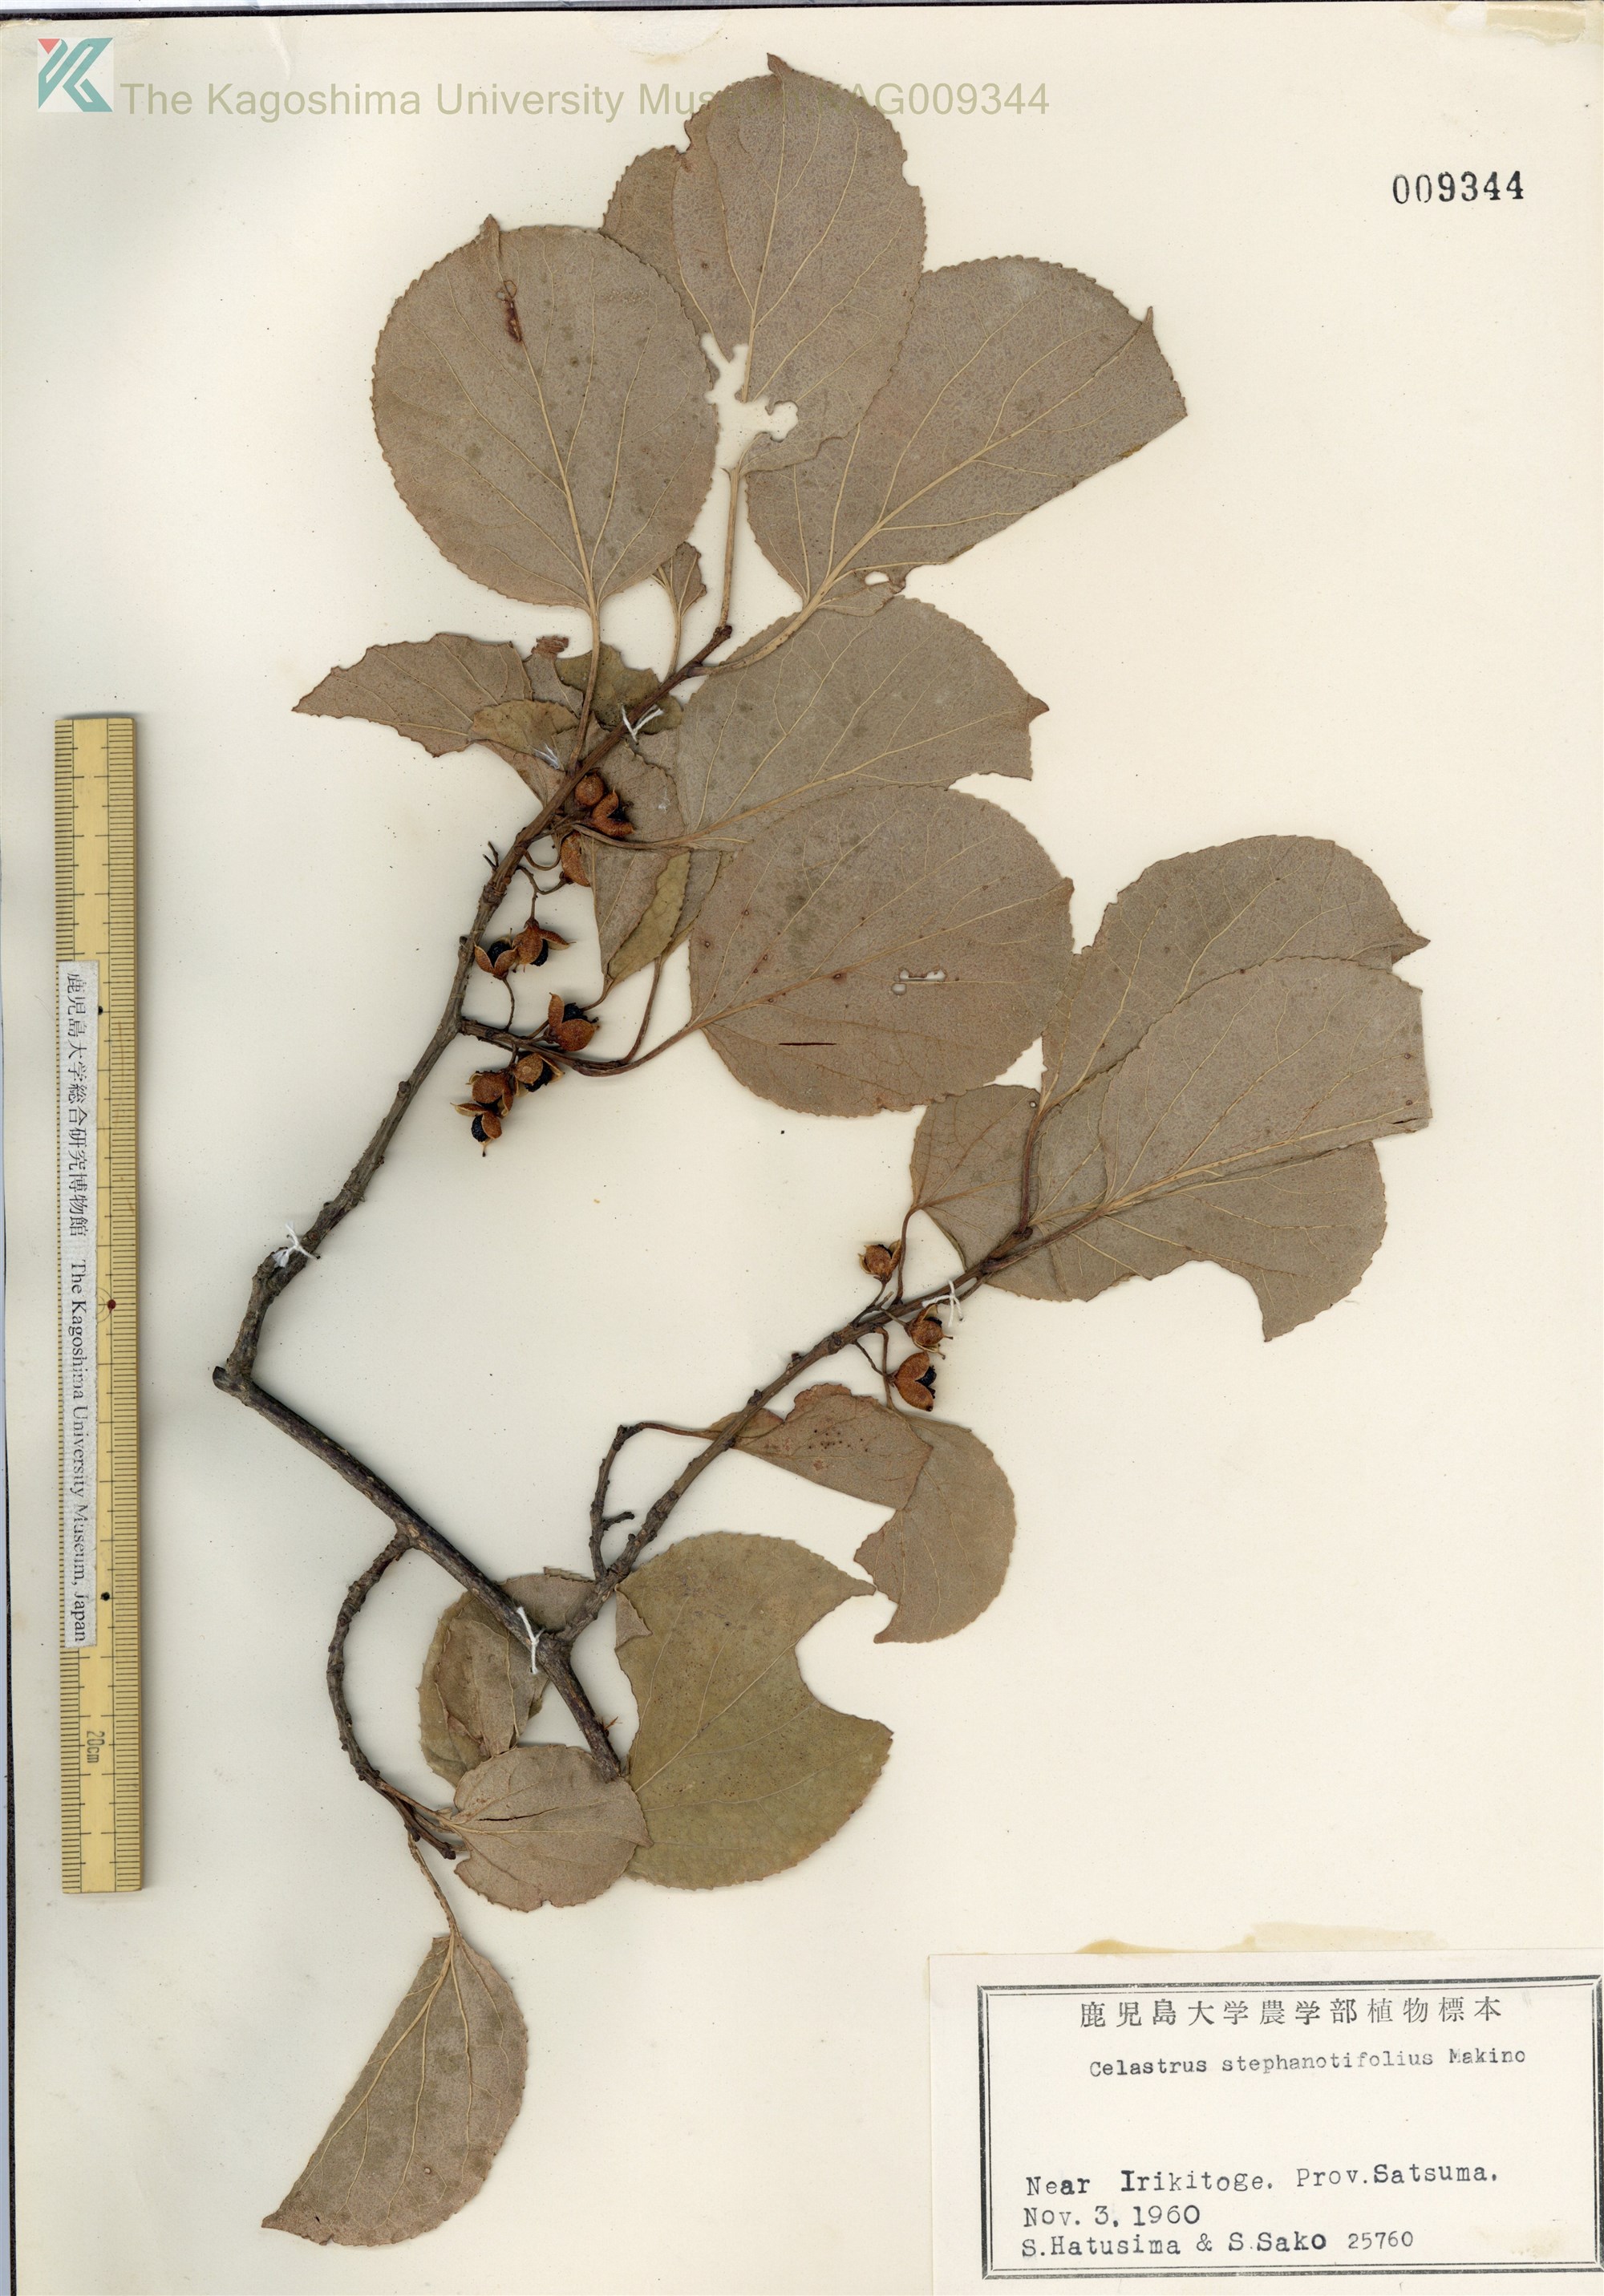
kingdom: Plantae
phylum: Tracheophyta
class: Magnoliopsida
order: Celastrales
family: Celastraceae
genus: Celastrus
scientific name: Celastrus stephanotifolius
